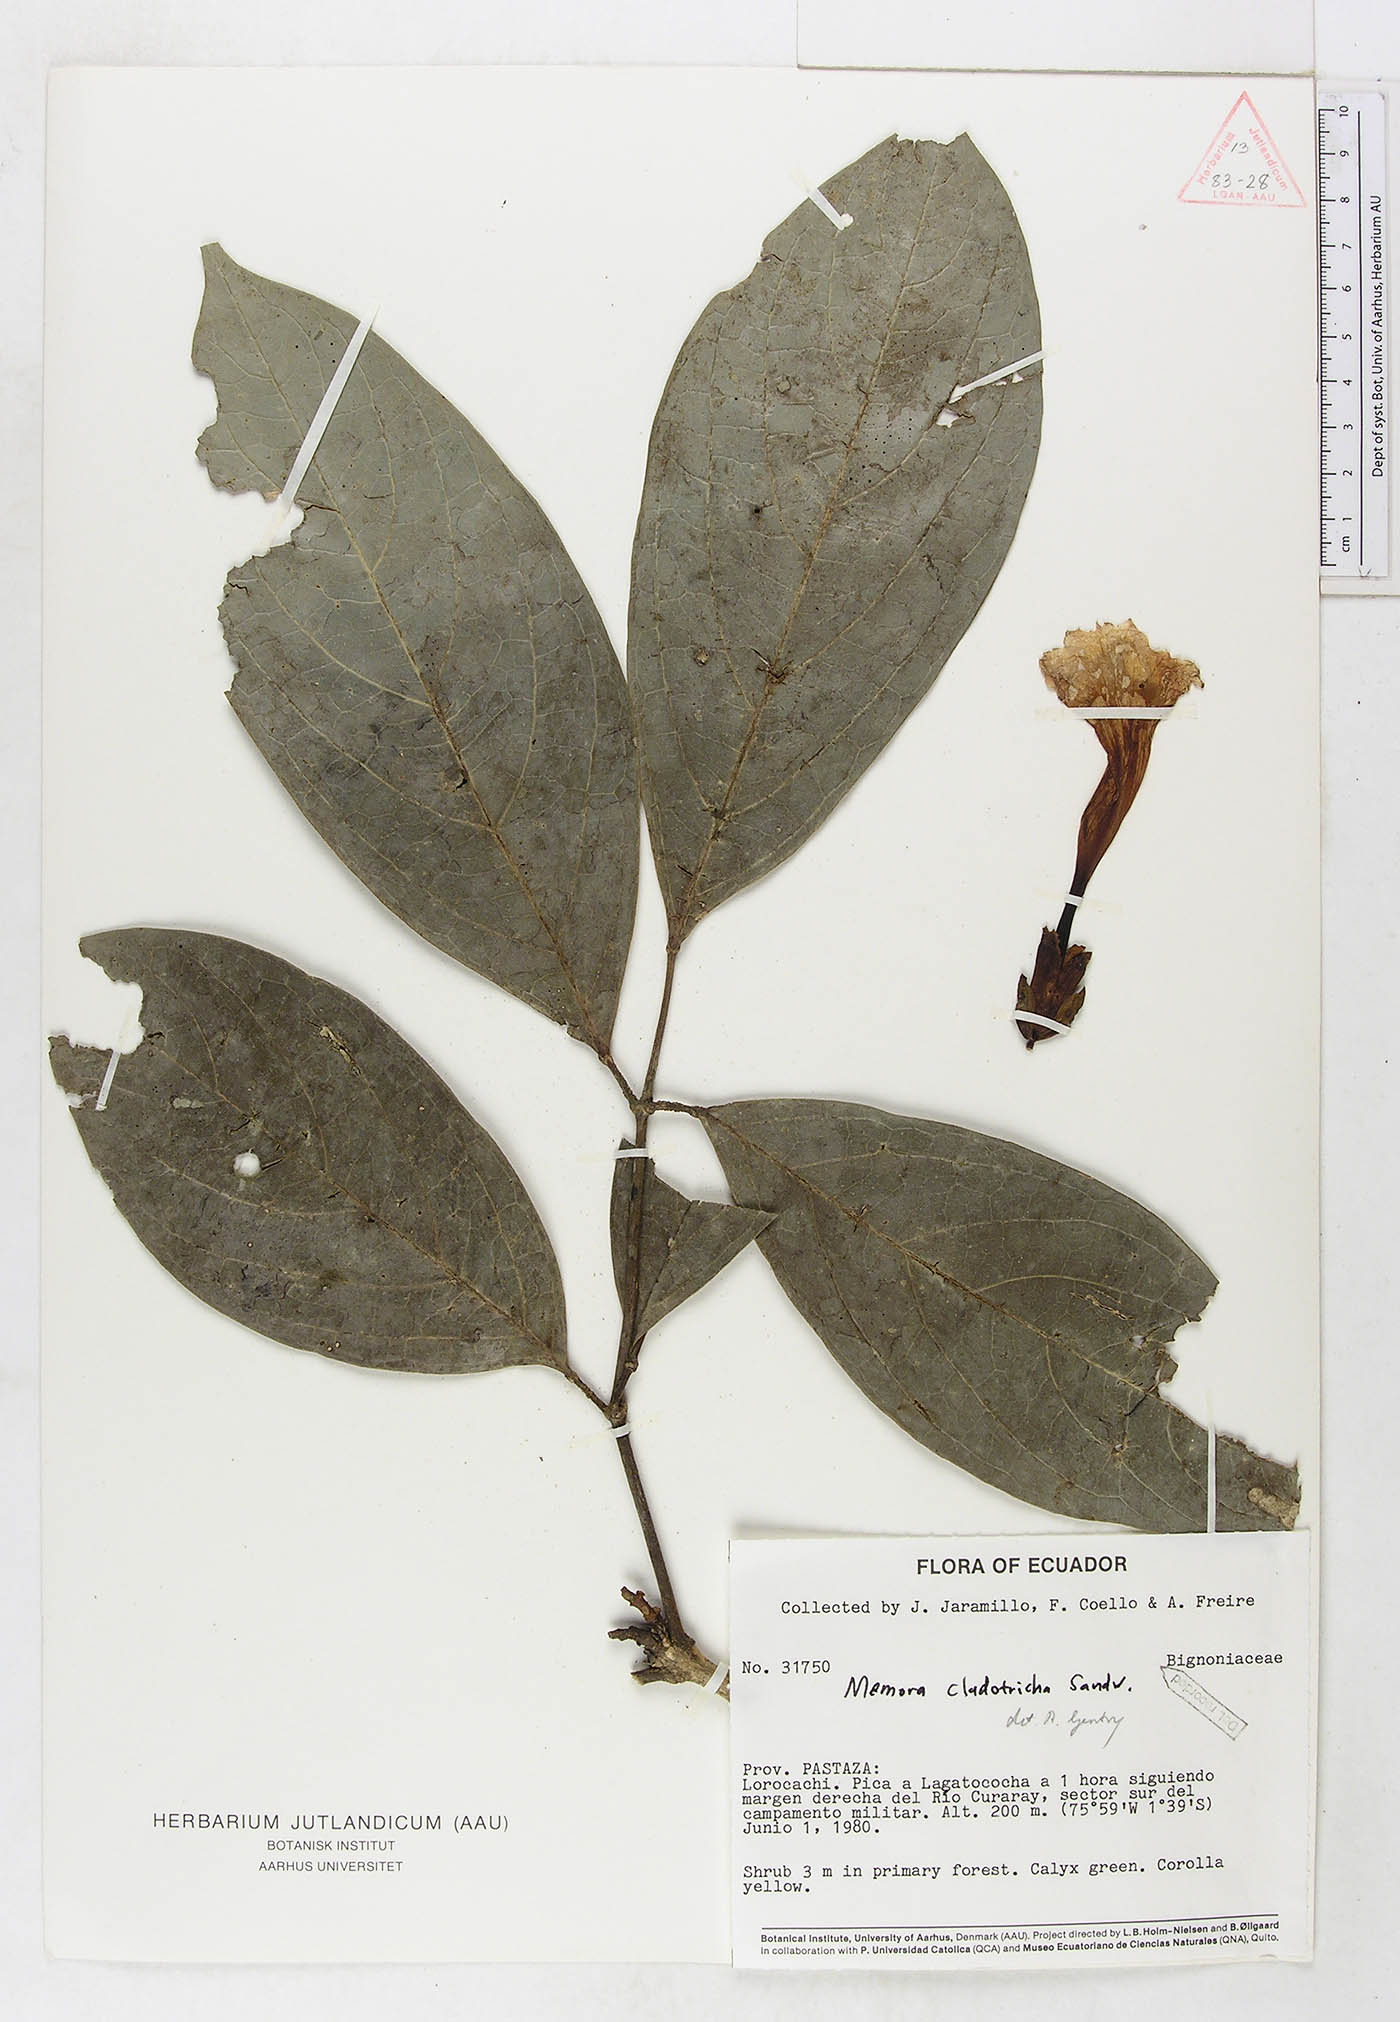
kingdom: Plantae
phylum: Tracheophyta
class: Magnoliopsida
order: Lamiales
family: Bignoniaceae
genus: Adenocalymma
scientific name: Adenocalymma cladotrichum
